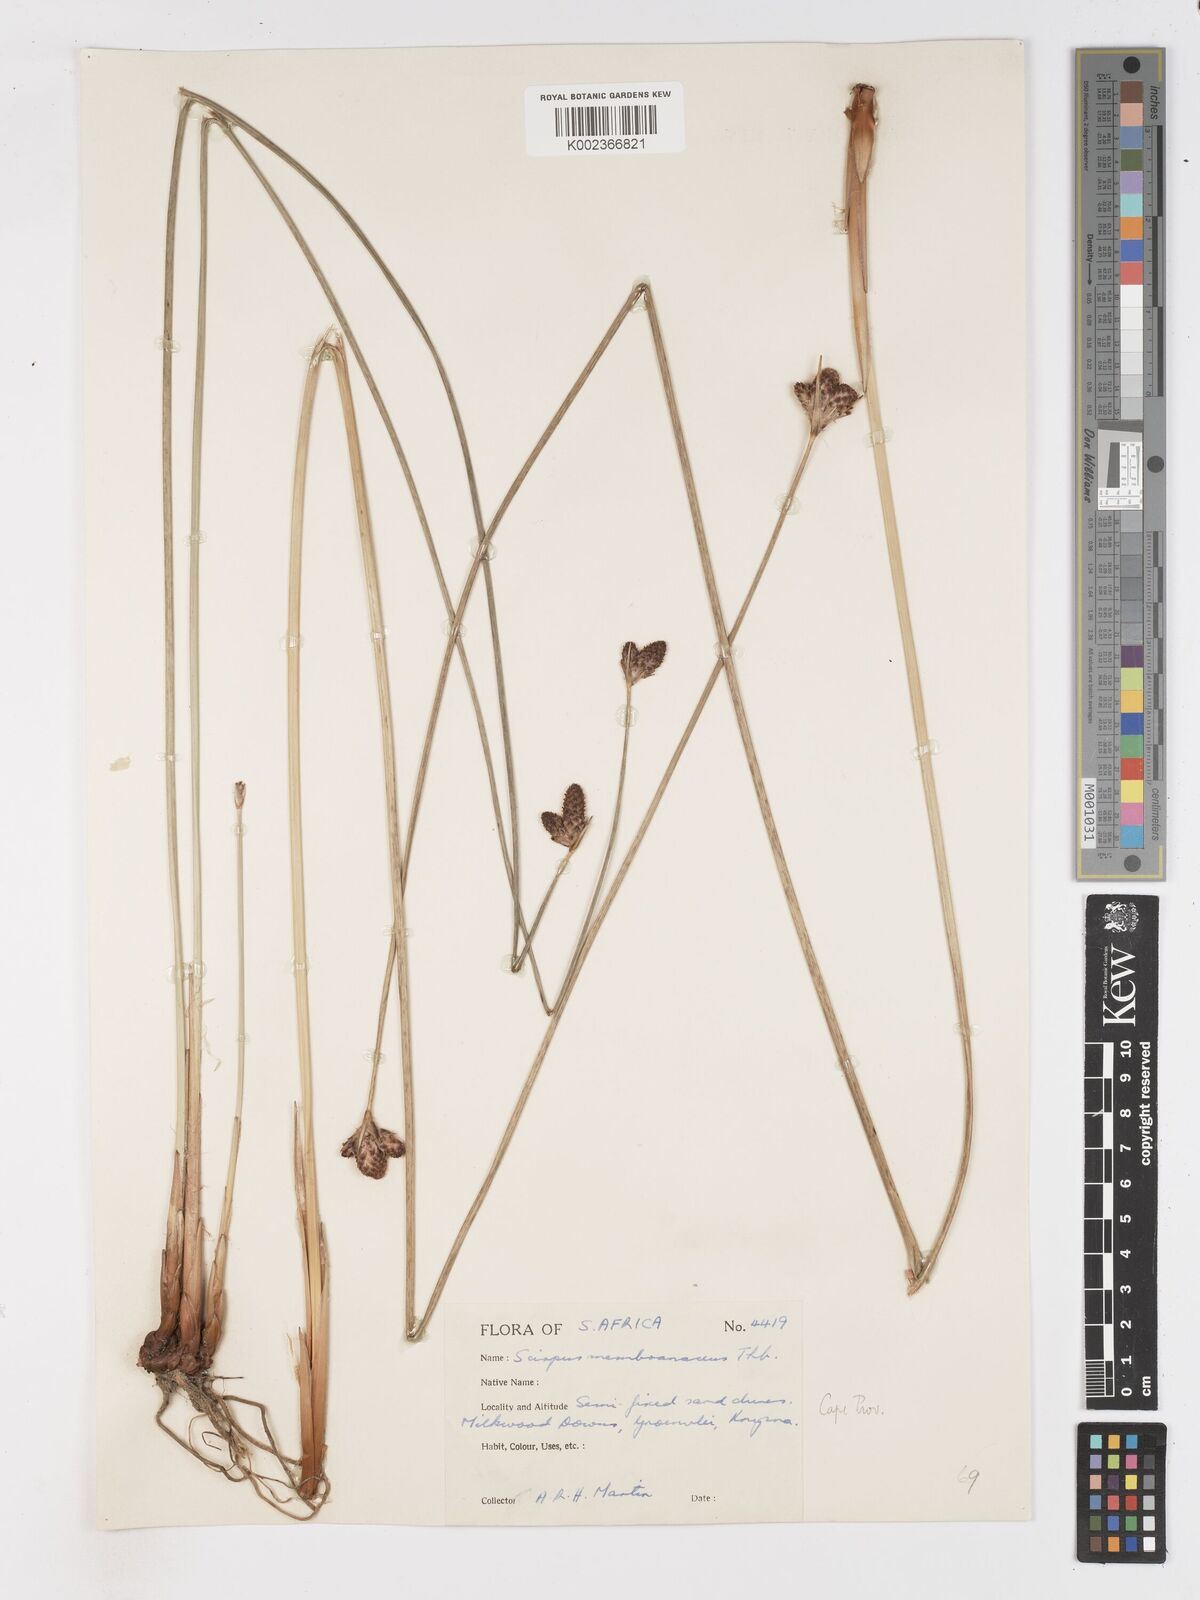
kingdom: Plantae
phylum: Tracheophyta
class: Liliopsida
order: Poales
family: Cyperaceae
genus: Hellmuthia
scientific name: Hellmuthia membranacea
